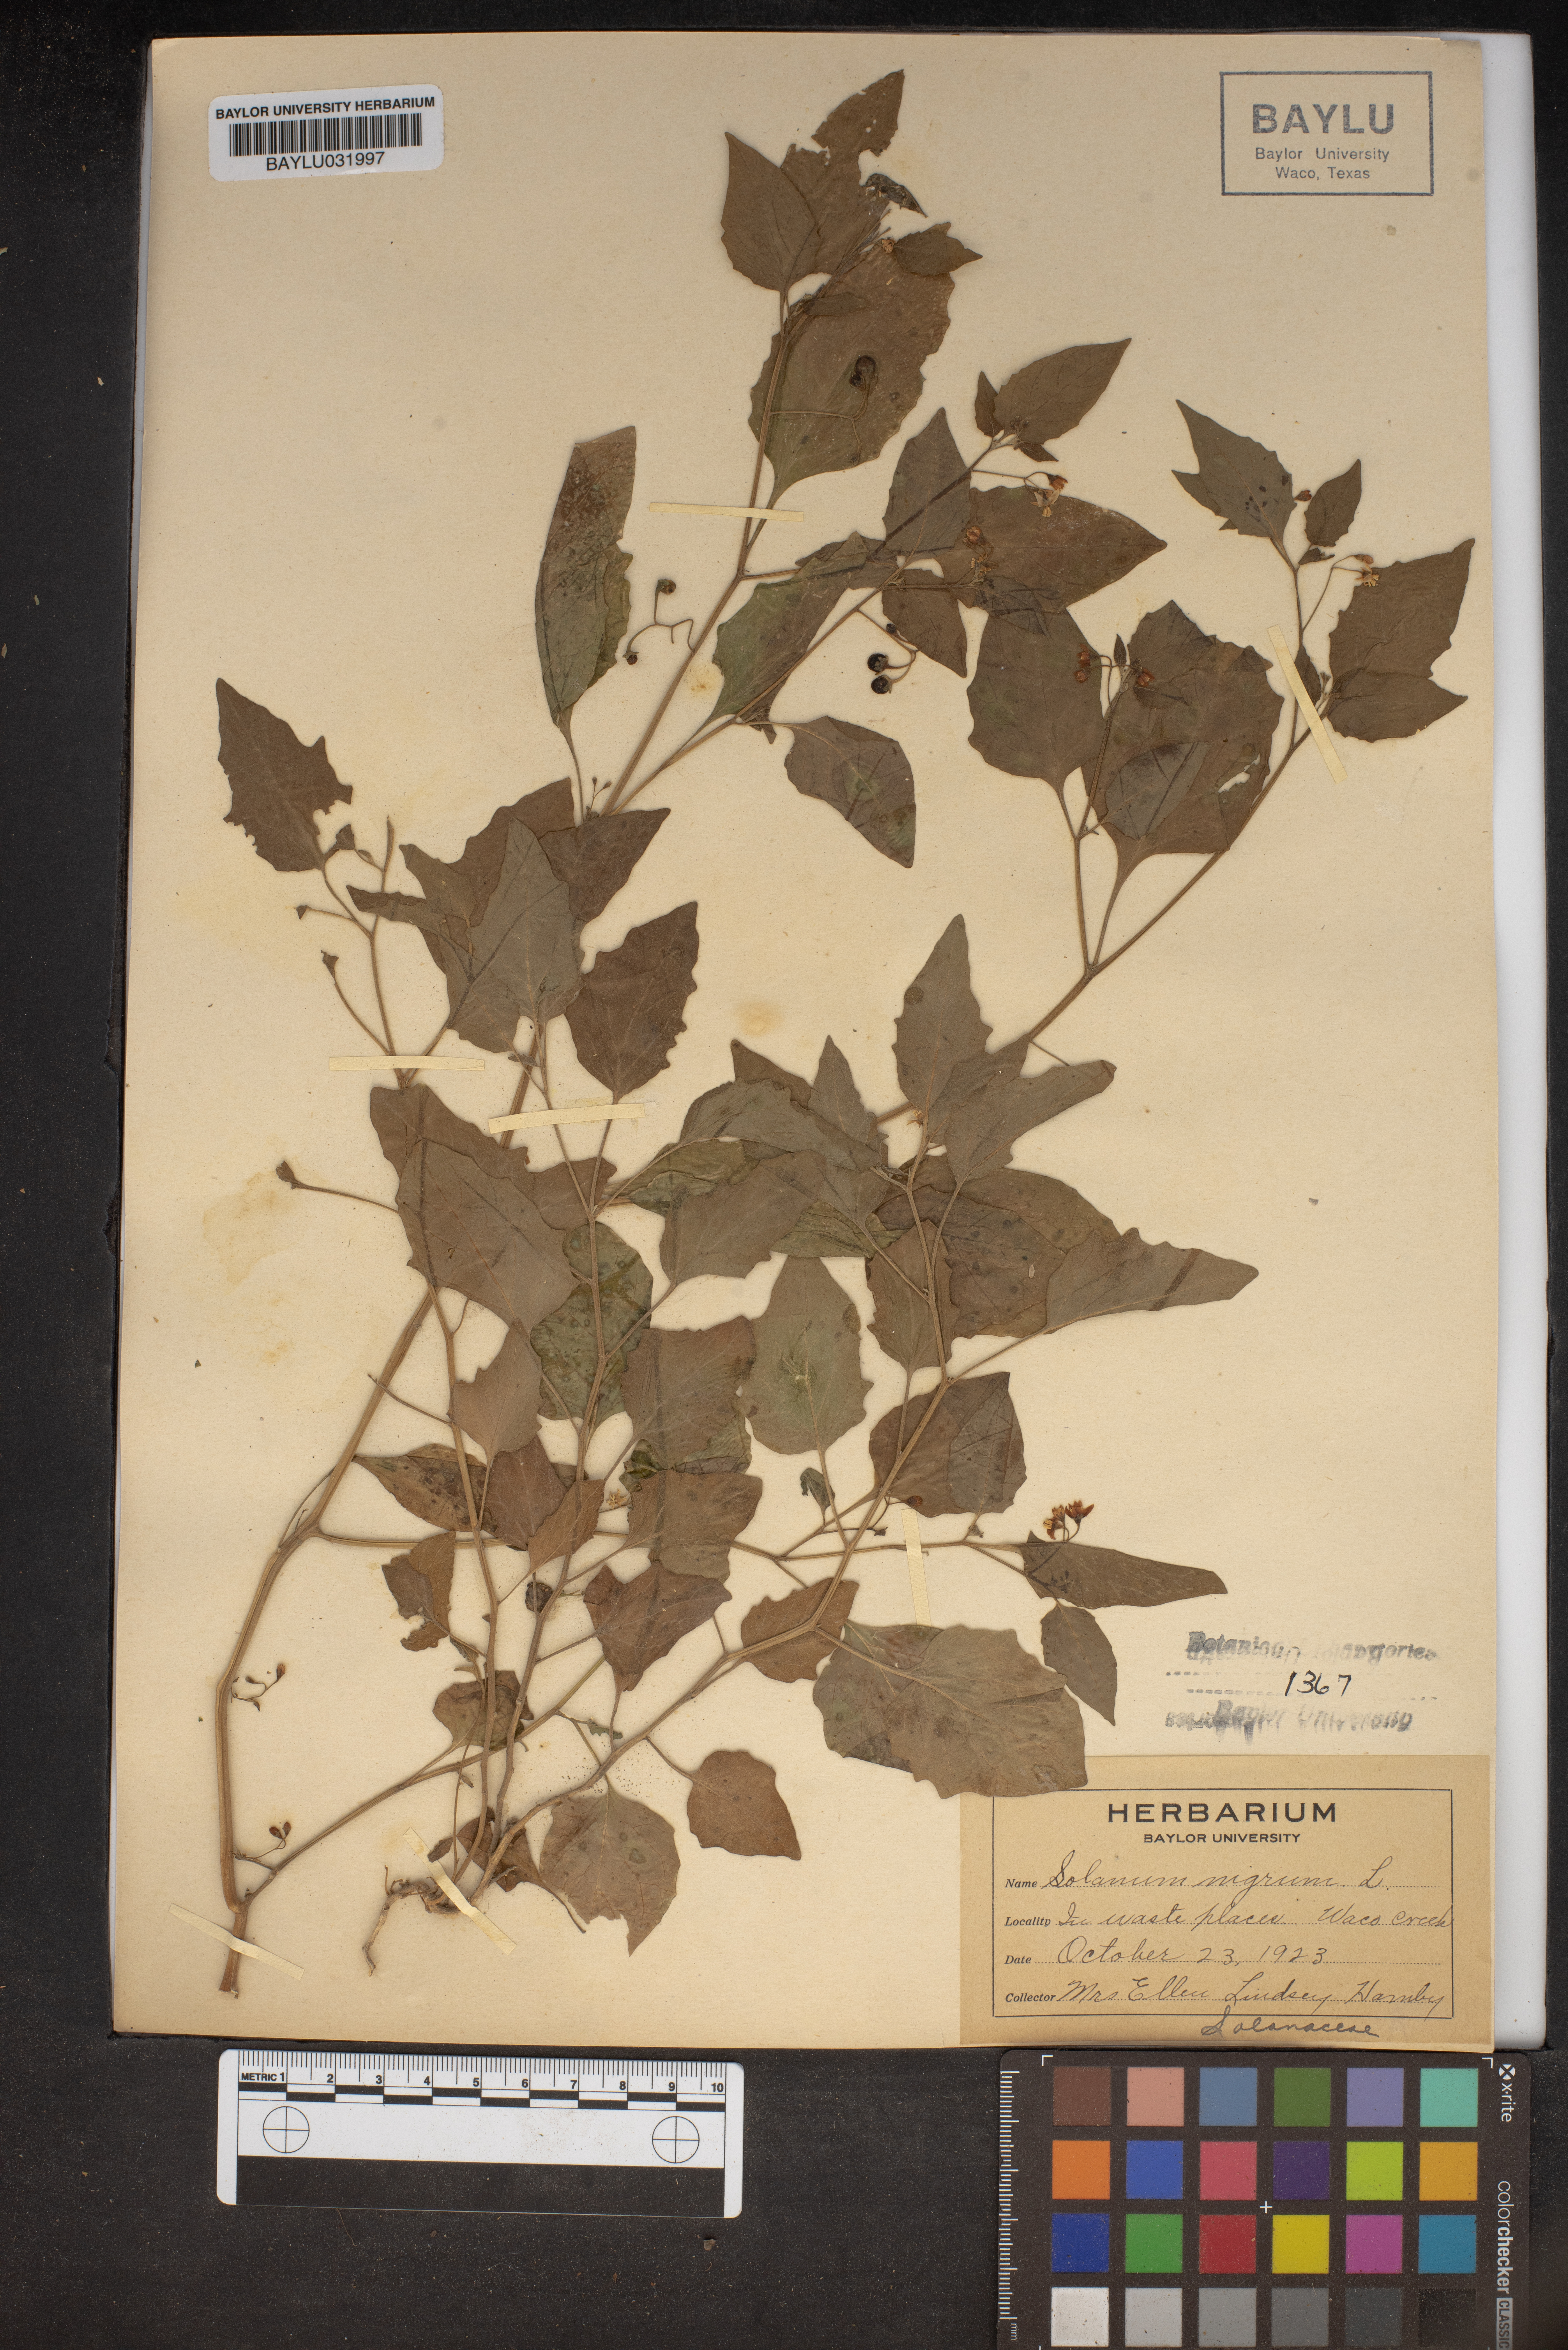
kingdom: Plantae
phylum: Tracheophyta
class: Magnoliopsida
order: Solanales
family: Solanaceae
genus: Solanum
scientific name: Solanum nigrum
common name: Black nightshade
